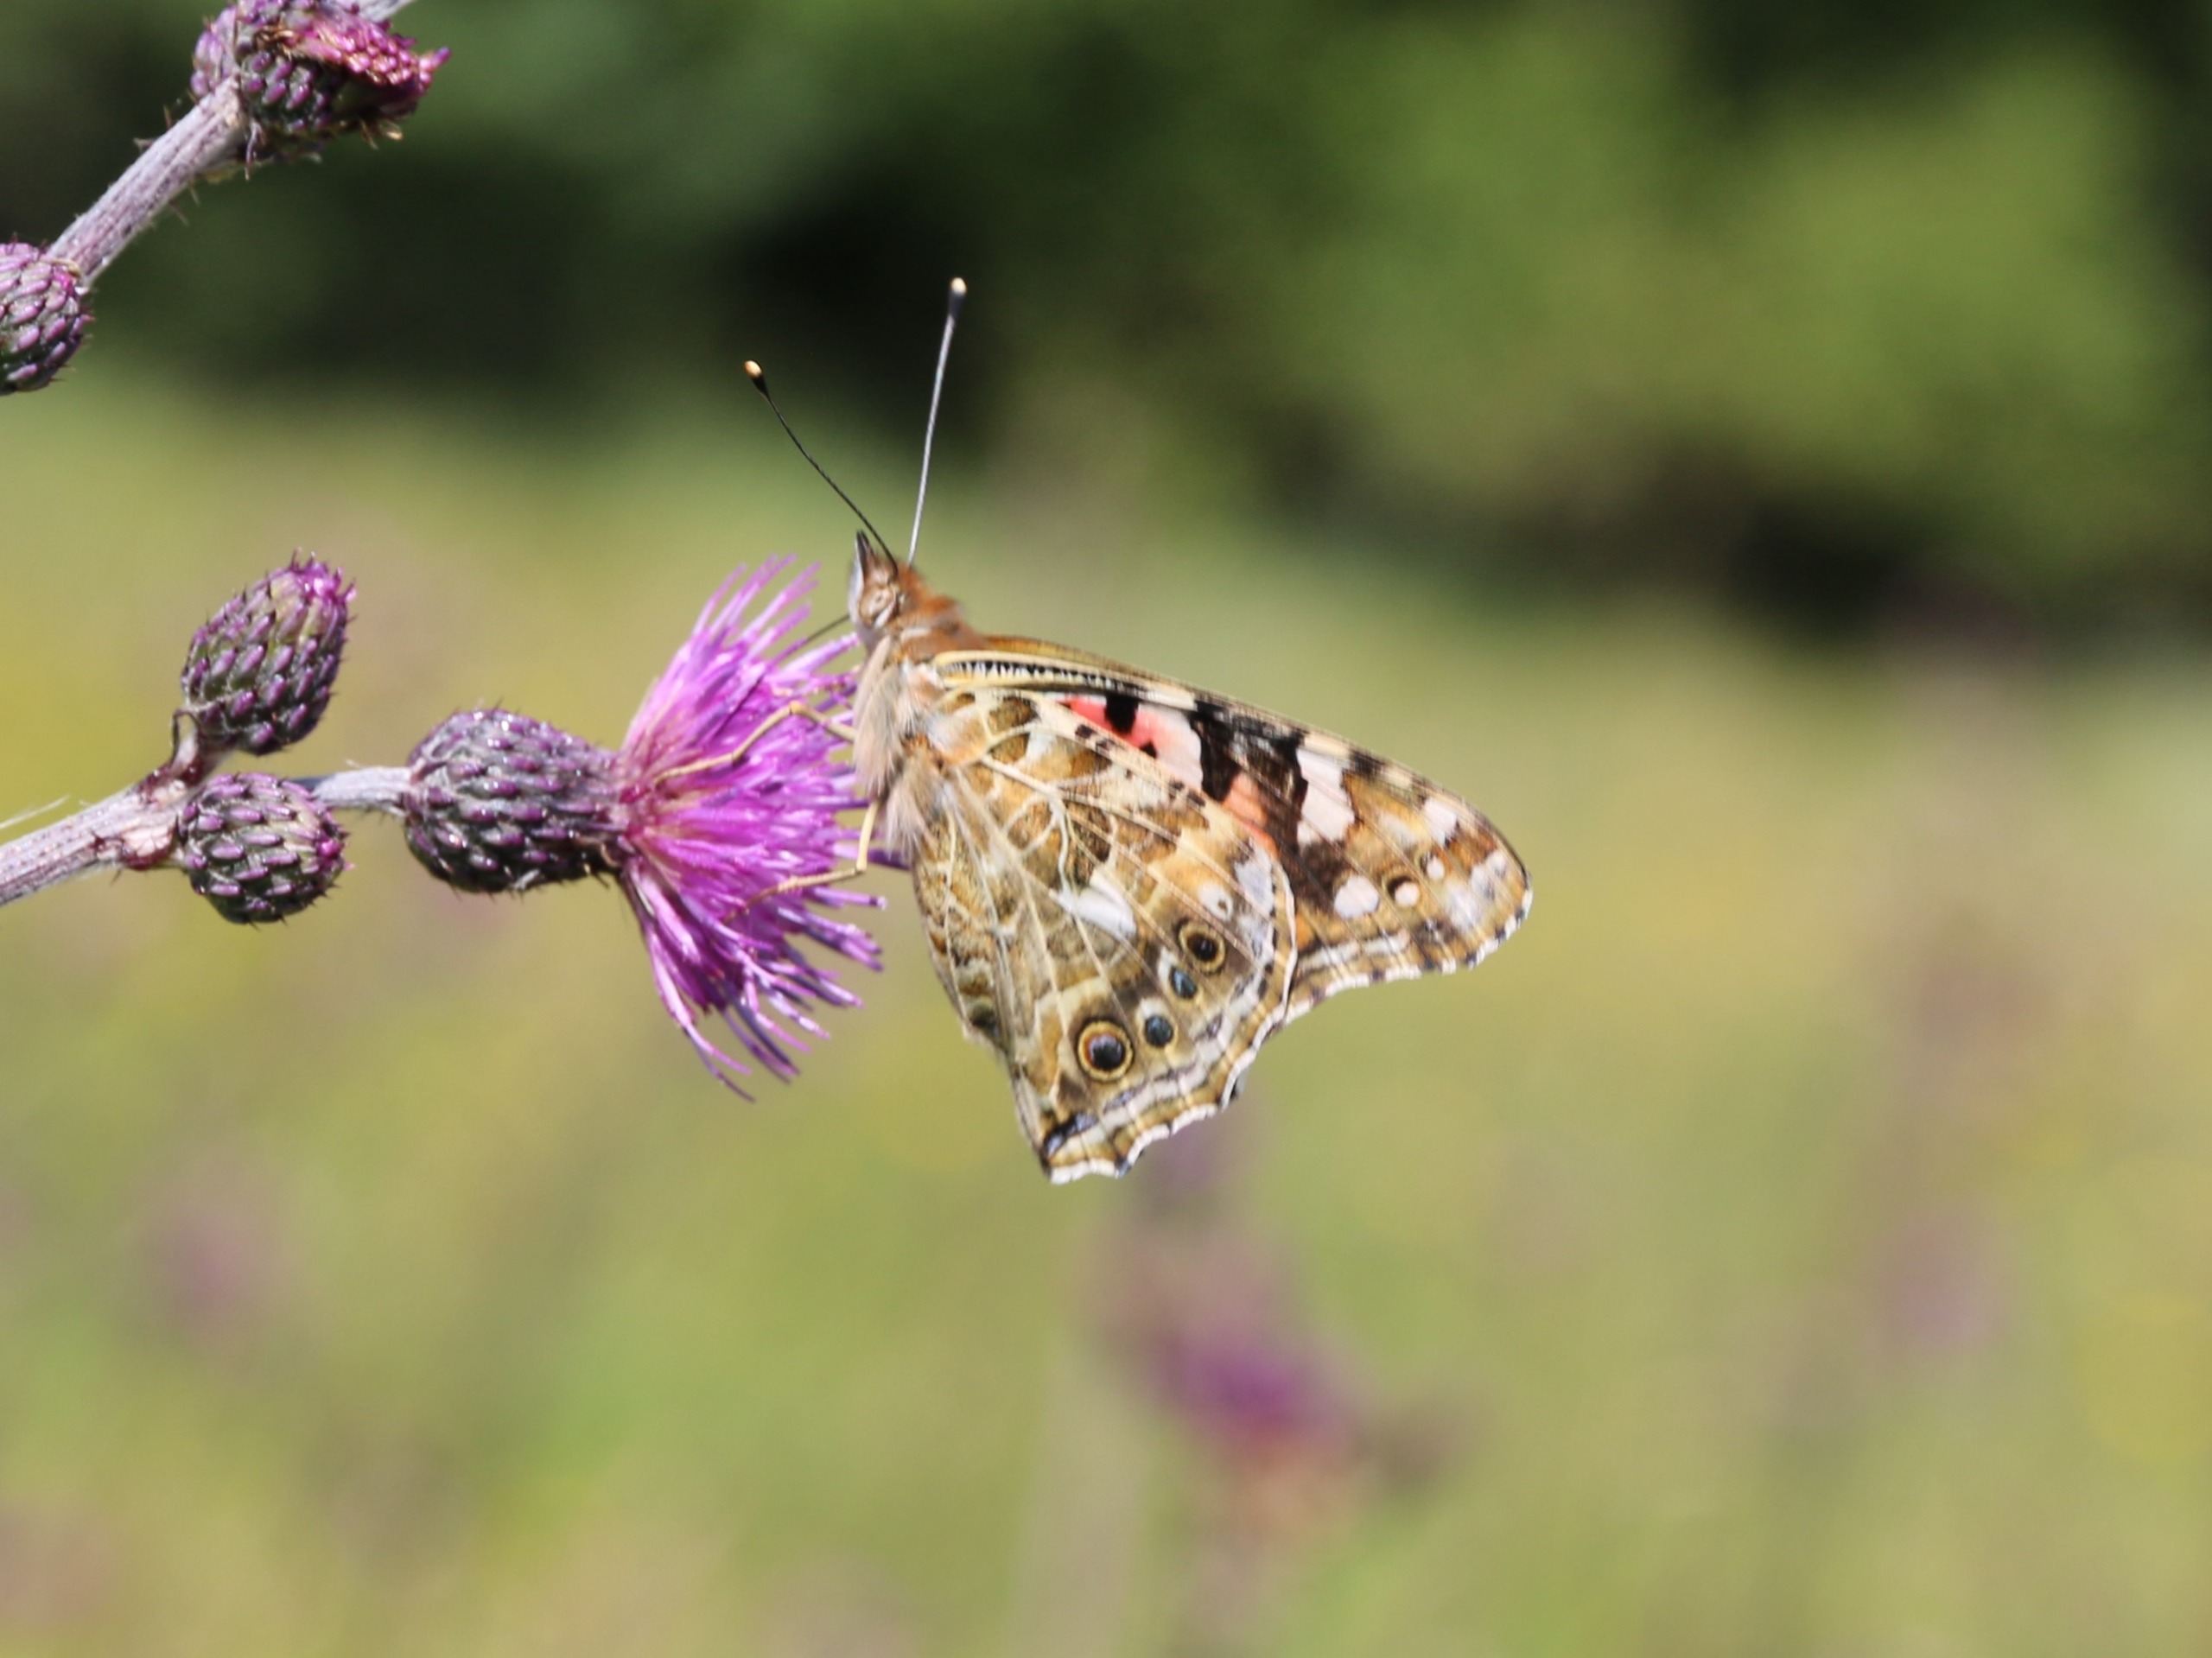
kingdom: Animalia
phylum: Arthropoda
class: Insecta
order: Lepidoptera
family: Nymphalidae
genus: Vanessa
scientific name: Vanessa cardui
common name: Tidselsommerfugl
